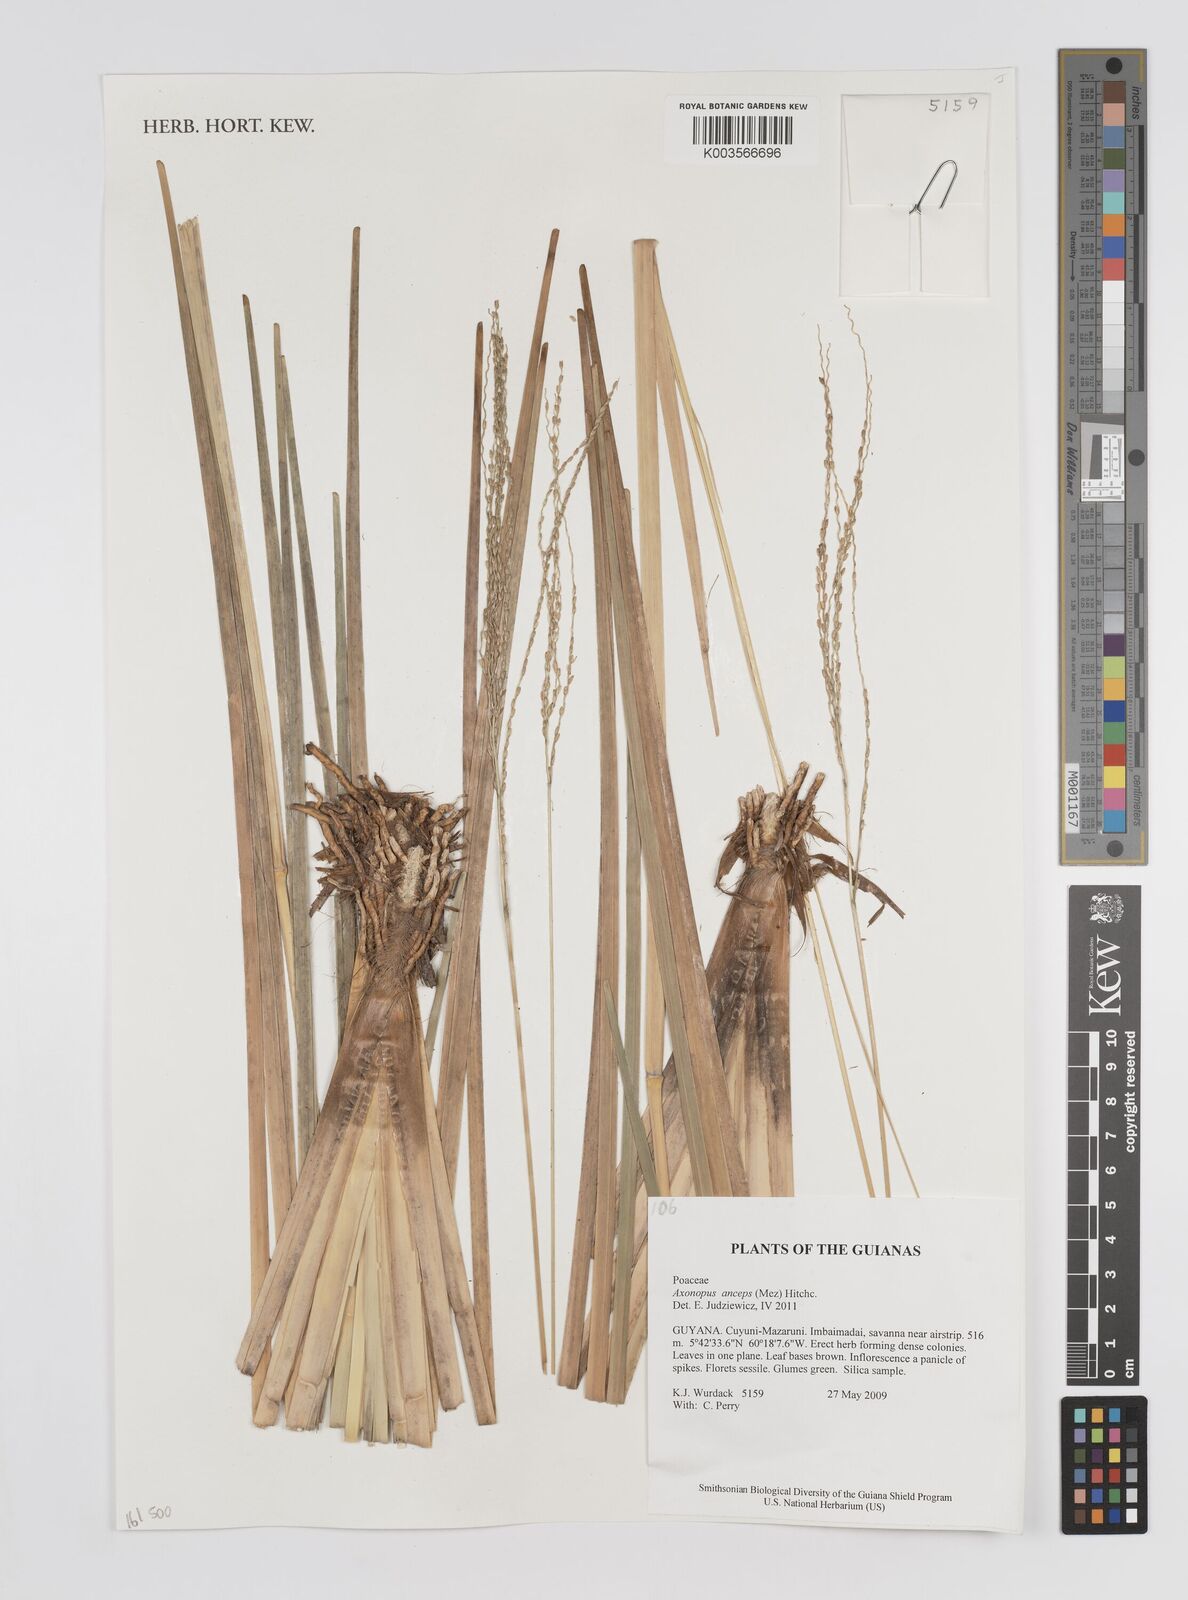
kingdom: Plantae
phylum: Tracheophyta
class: Liliopsida
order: Poales
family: Poaceae
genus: Axonopus
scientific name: Axonopus anceps
